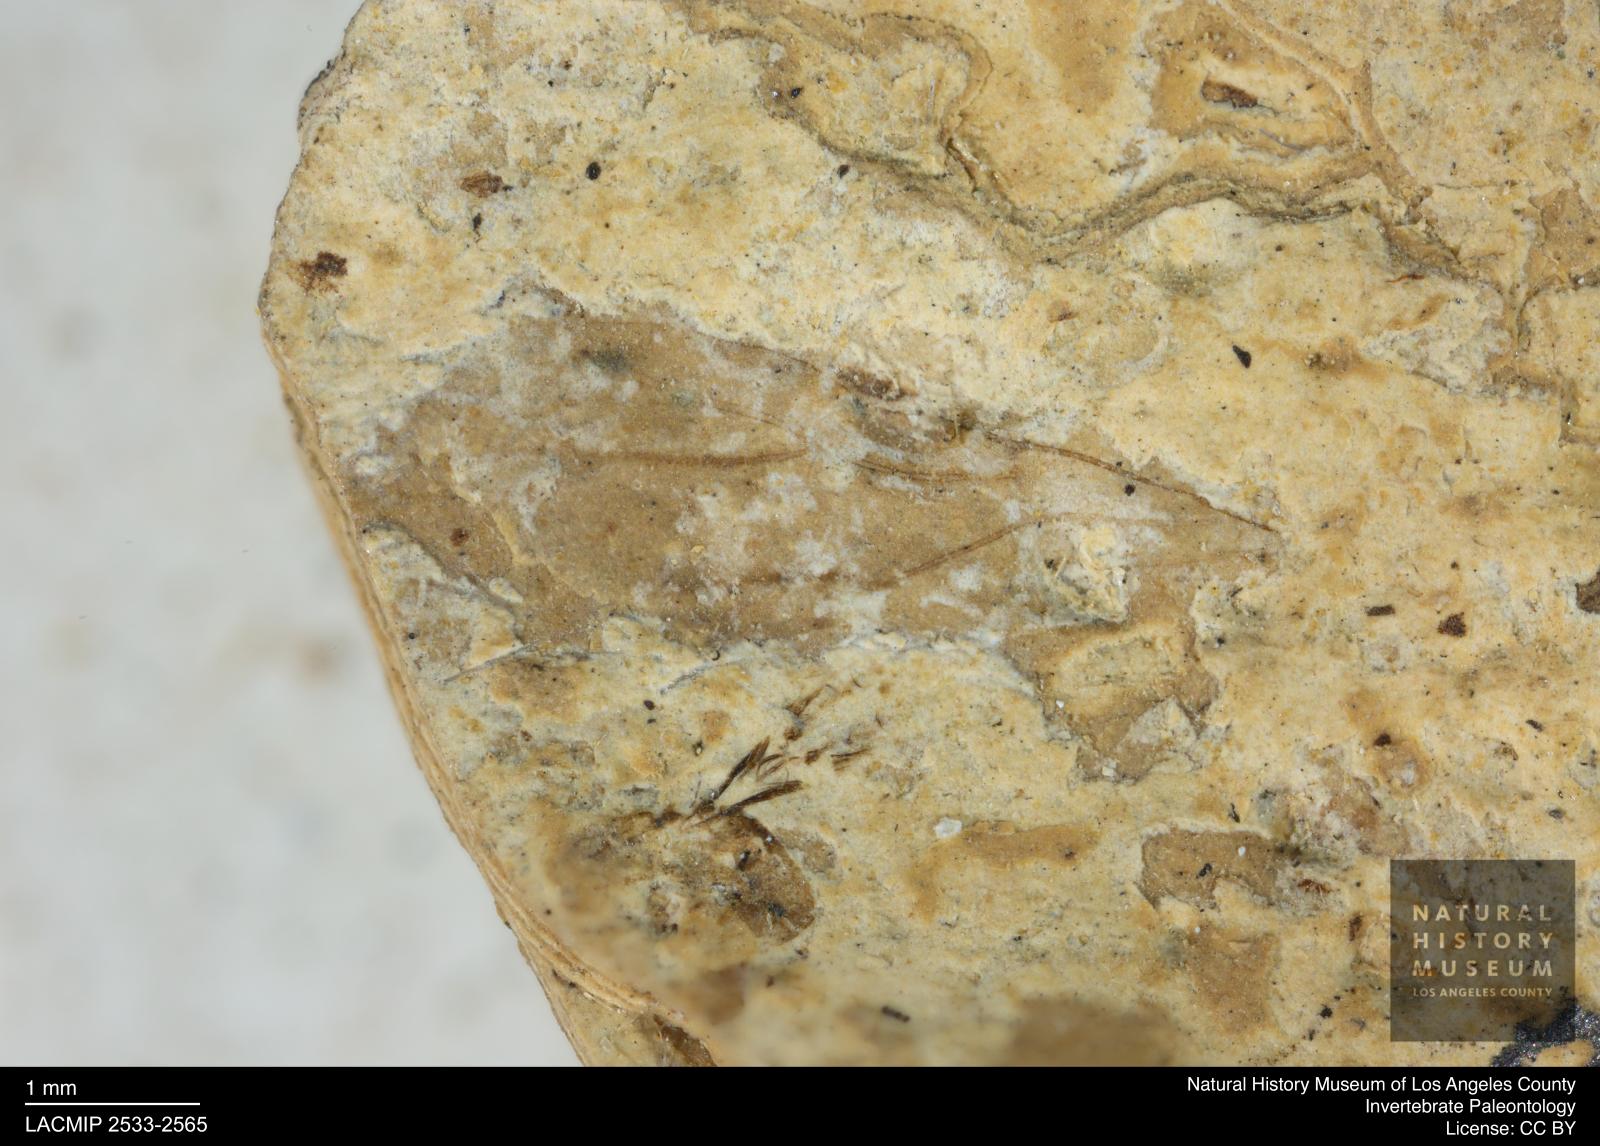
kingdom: Animalia
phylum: Arthropoda
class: Insecta
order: Hymenoptera
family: Formicidae
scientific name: Formicidae
